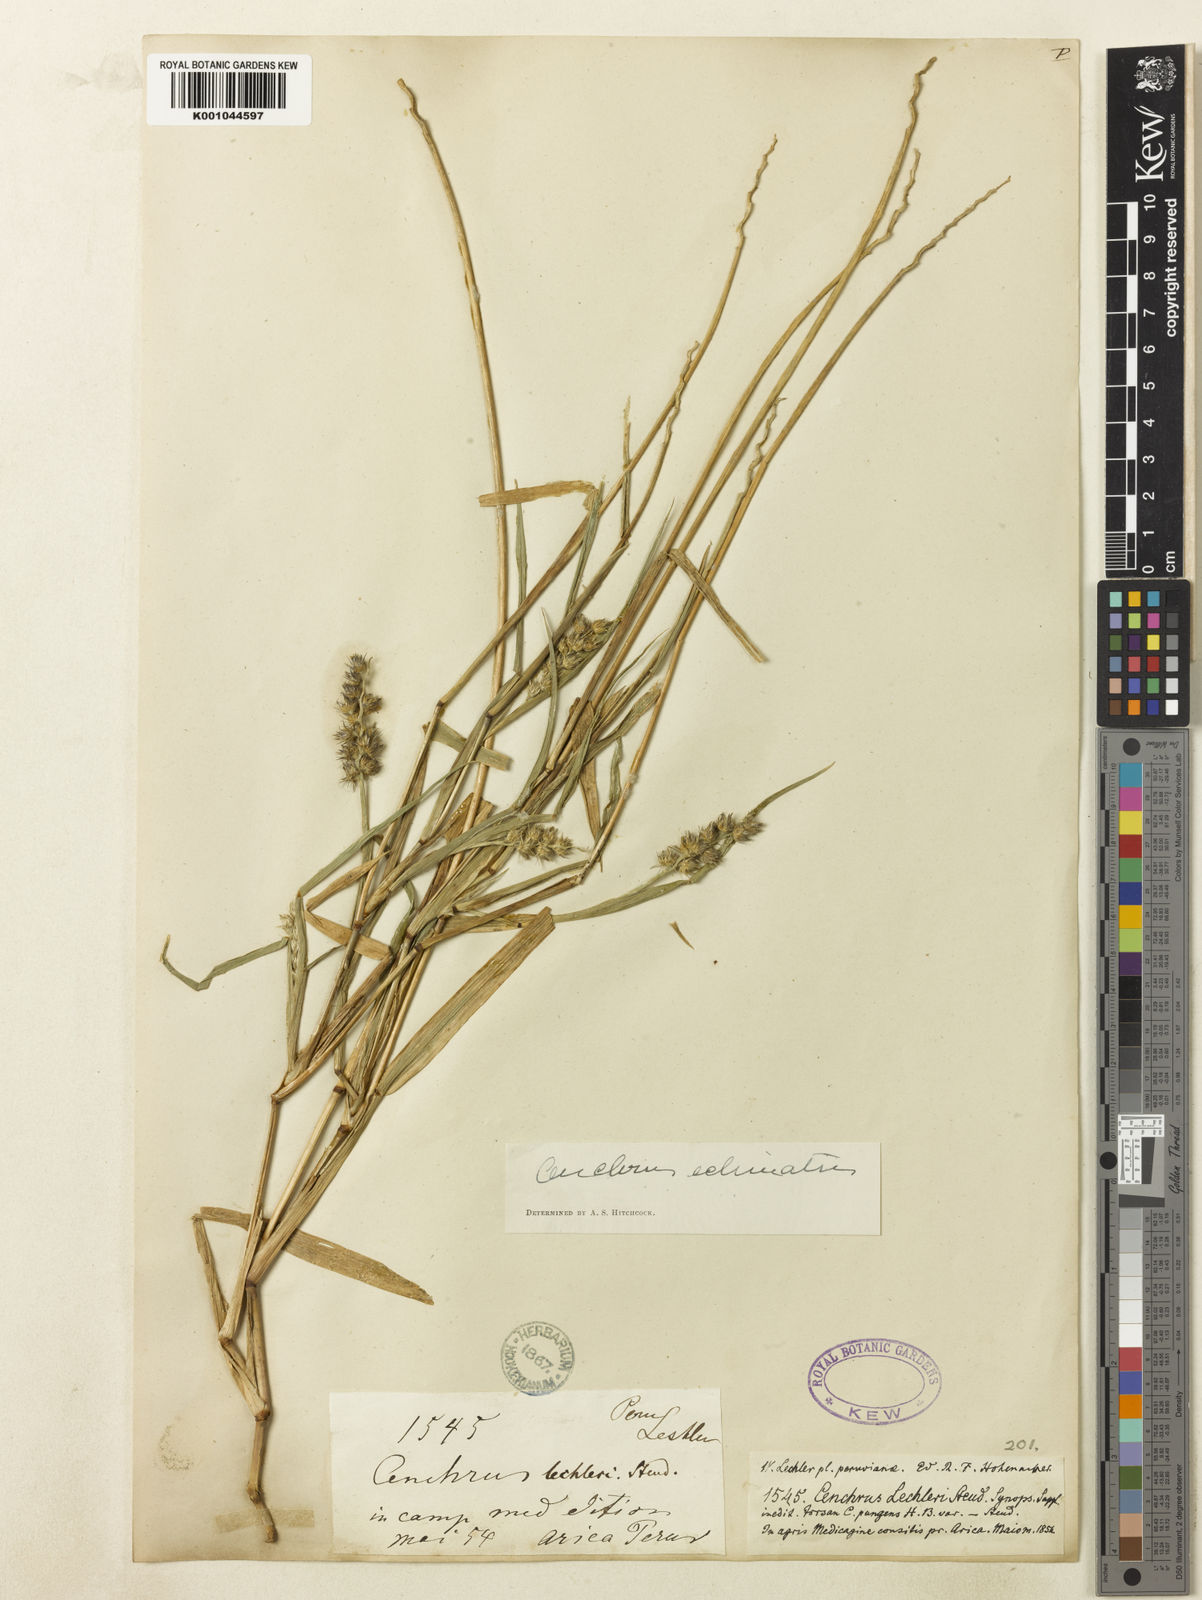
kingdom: Plantae
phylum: Tracheophyta
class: Liliopsida
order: Poales
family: Poaceae
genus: Cenchrus
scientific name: Cenchrus echinatus
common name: Southern sandbur
